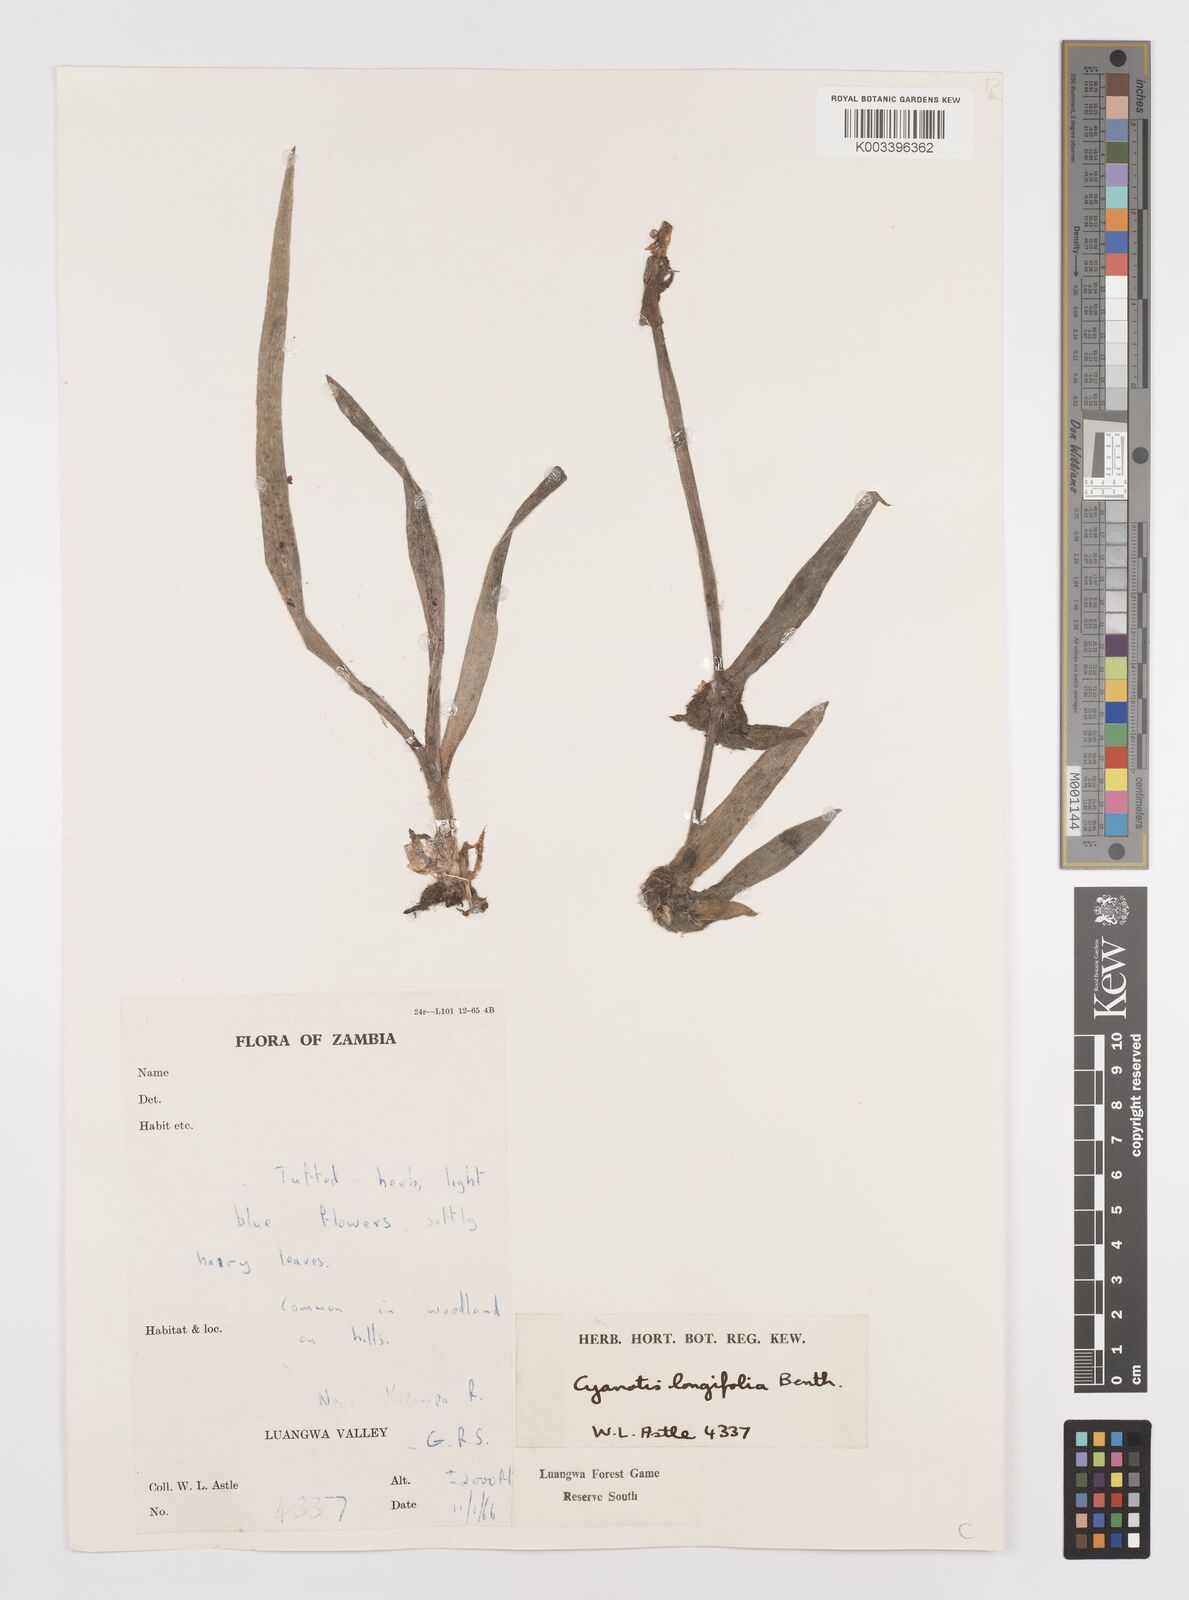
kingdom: Plantae
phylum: Tracheophyta
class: Liliopsida
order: Commelinales
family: Commelinaceae
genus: Cyanotis
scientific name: Cyanotis longifolia
